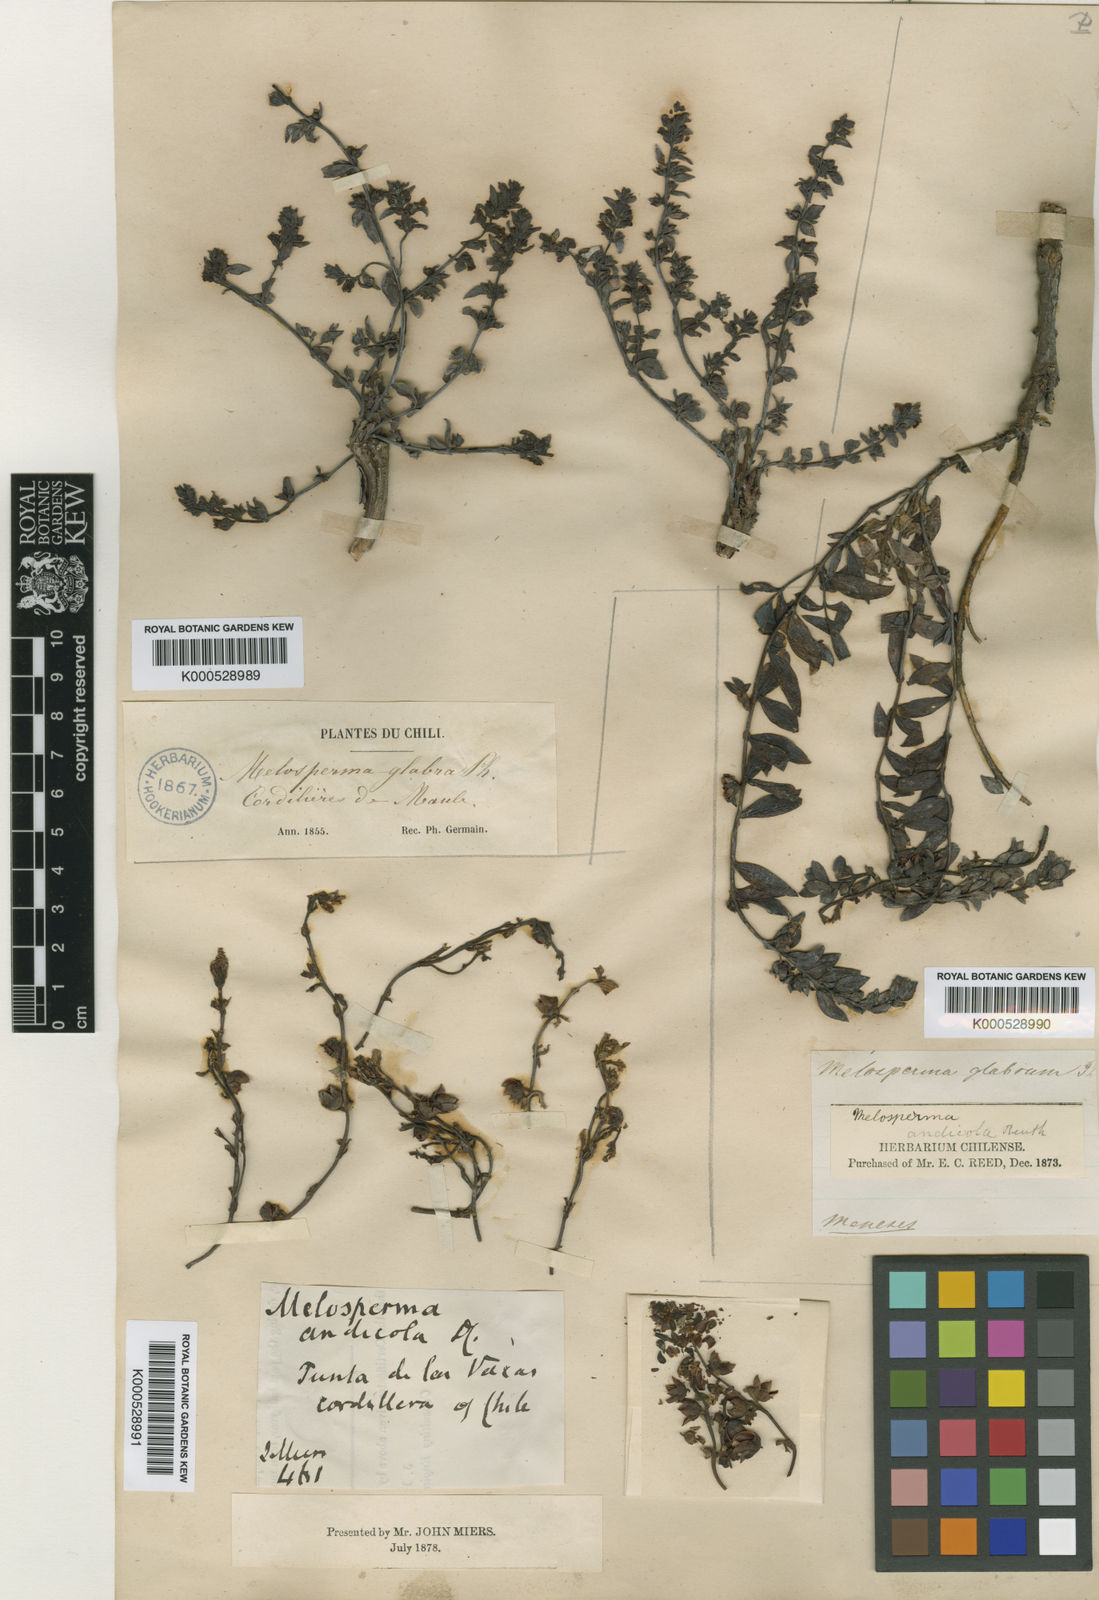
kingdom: Plantae
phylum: Tracheophyta
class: Magnoliopsida
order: Lamiales
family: Plantaginaceae
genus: Melosperma
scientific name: Melosperma andicola
